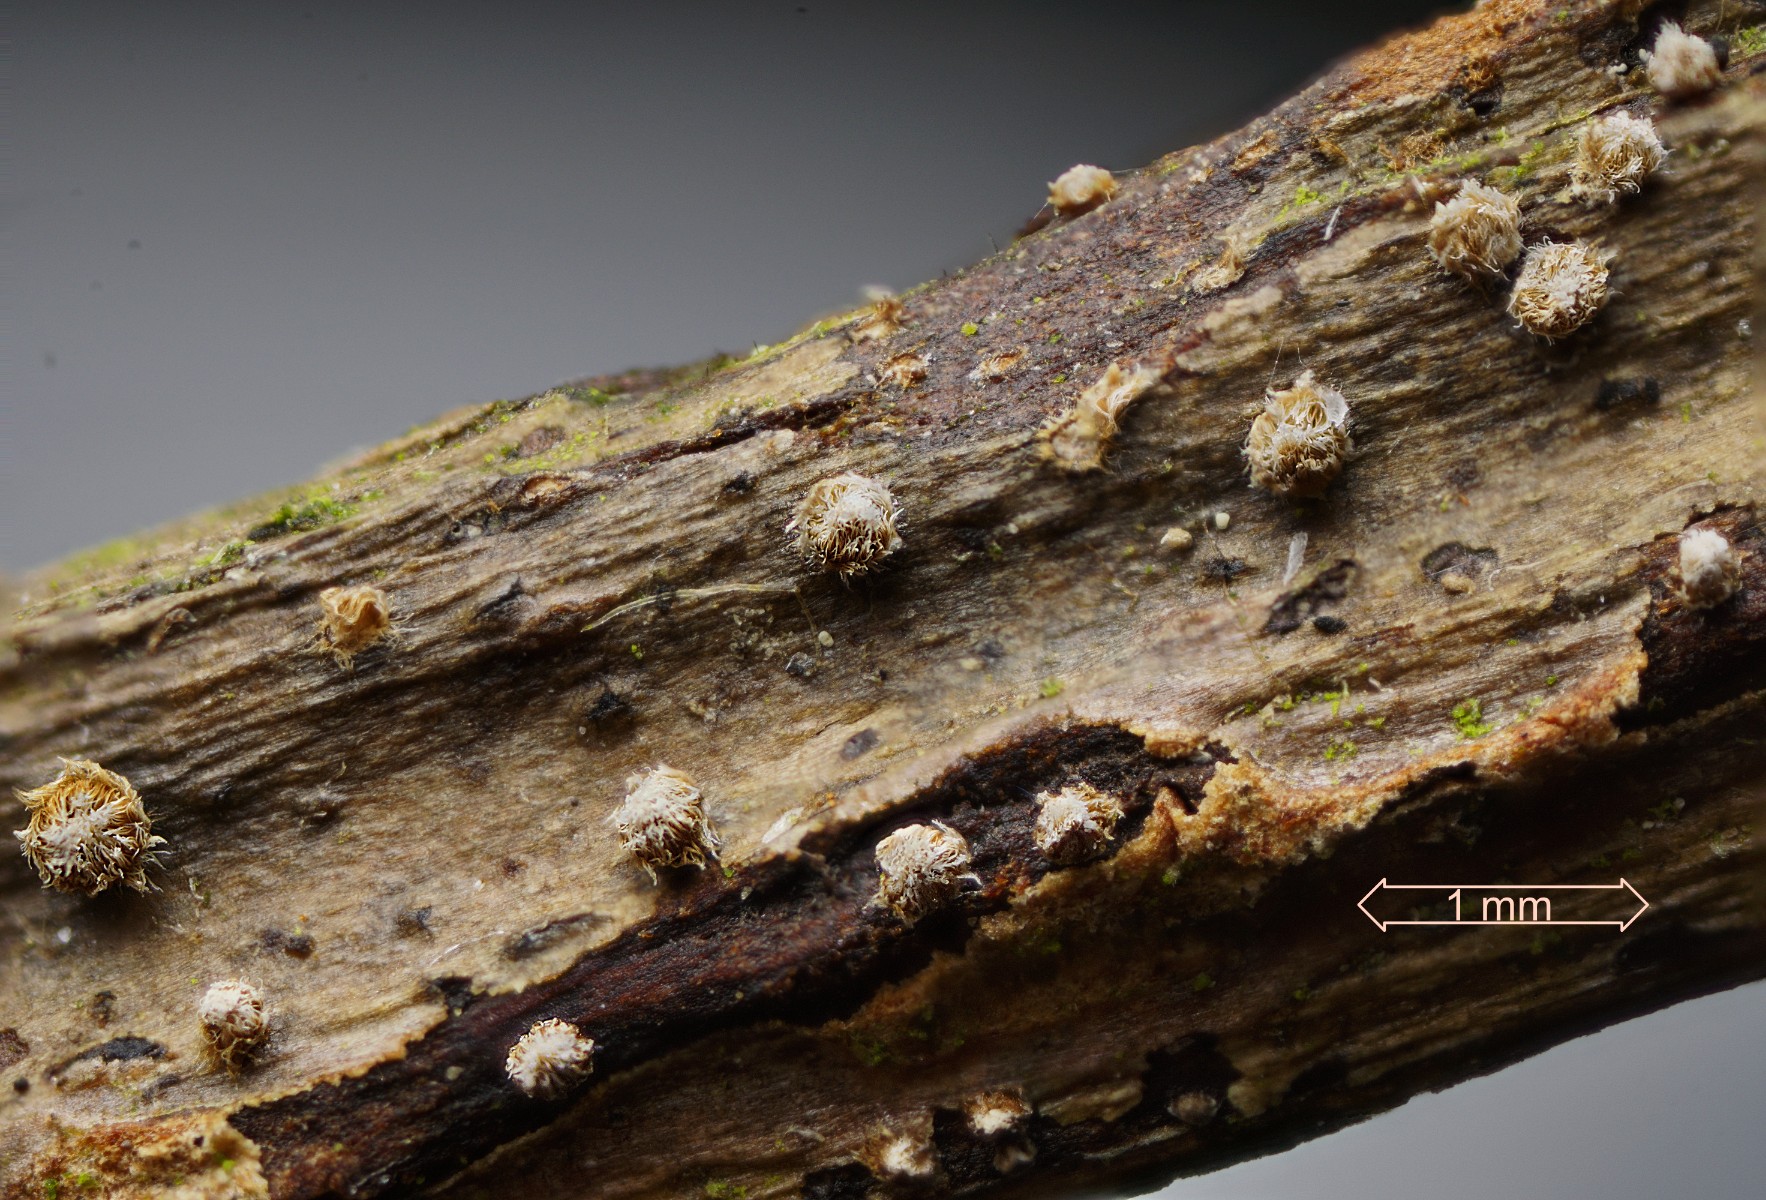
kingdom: Fungi
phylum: Basidiomycota
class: Agaricomycetes
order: Agaricales
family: Niaceae
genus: Merismodes
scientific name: Merismodes
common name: urte-læderskål
